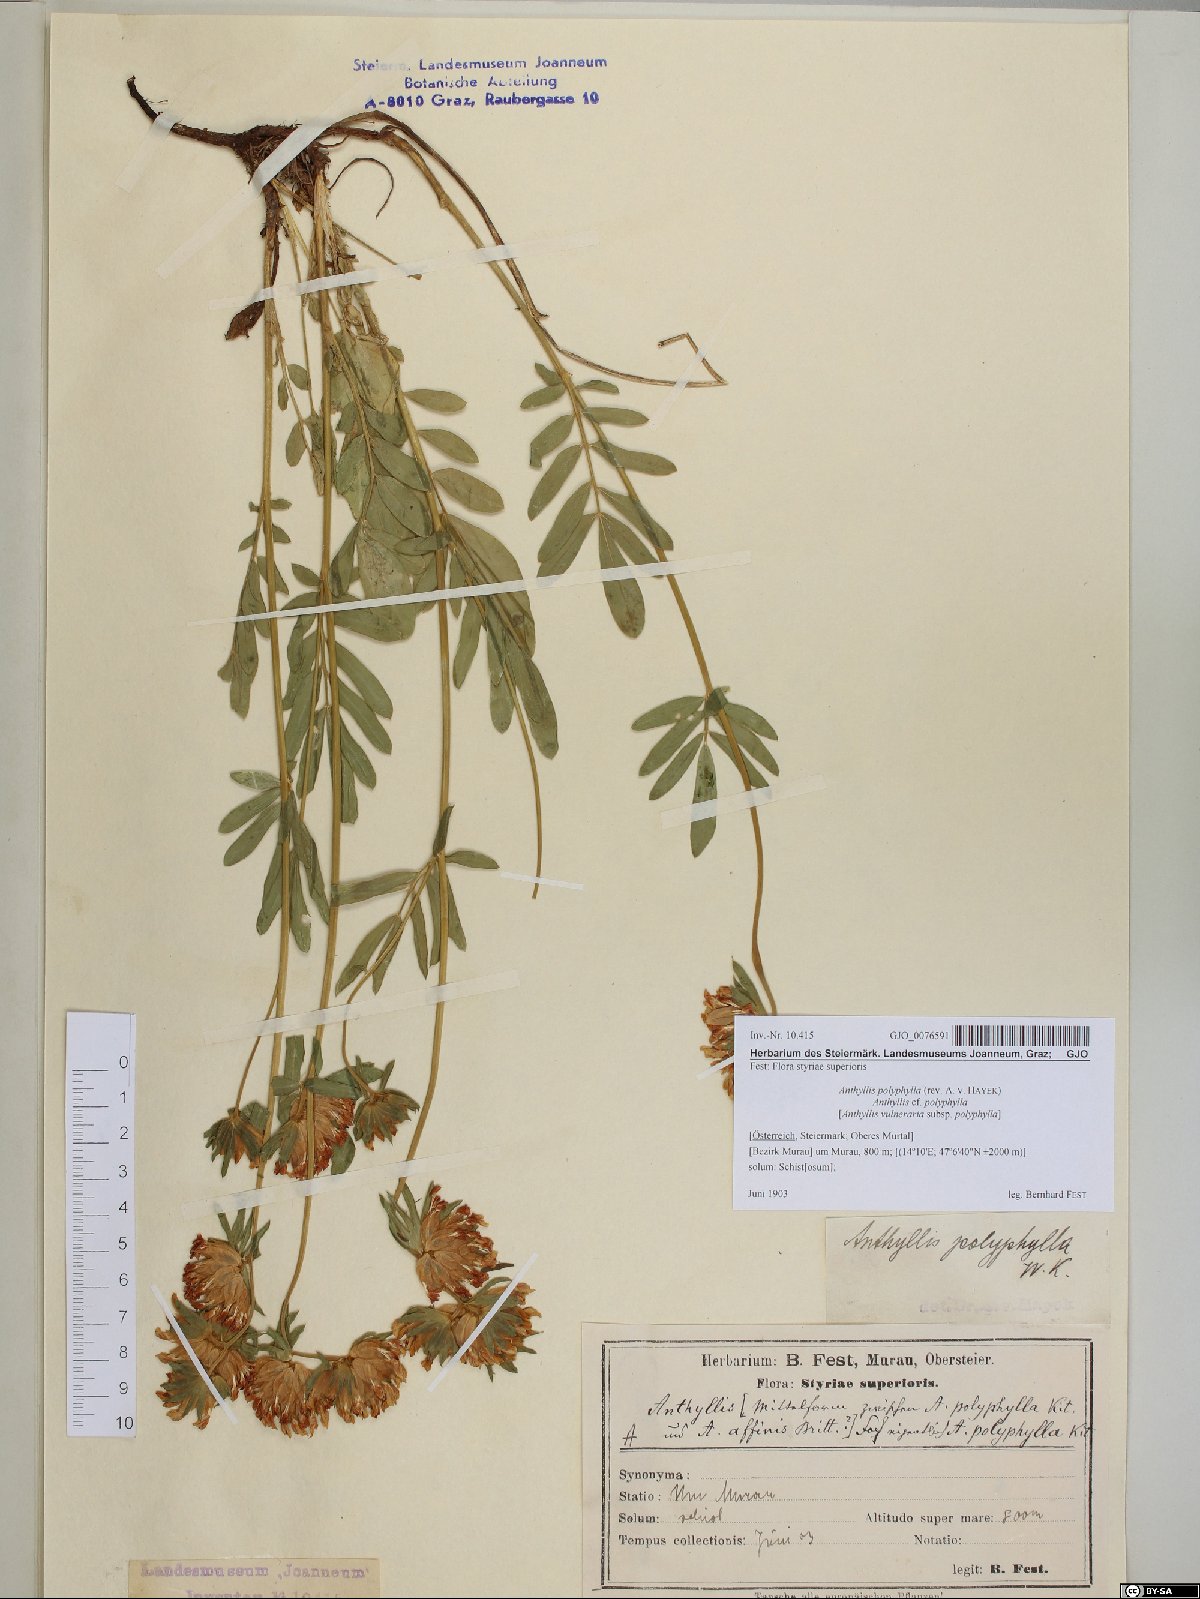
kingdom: Plantae
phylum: Tracheophyta
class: Magnoliopsida
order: Fabales
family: Fabaceae
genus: Anthyllis
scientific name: Anthyllis vulneraria
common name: Kidney vetch
